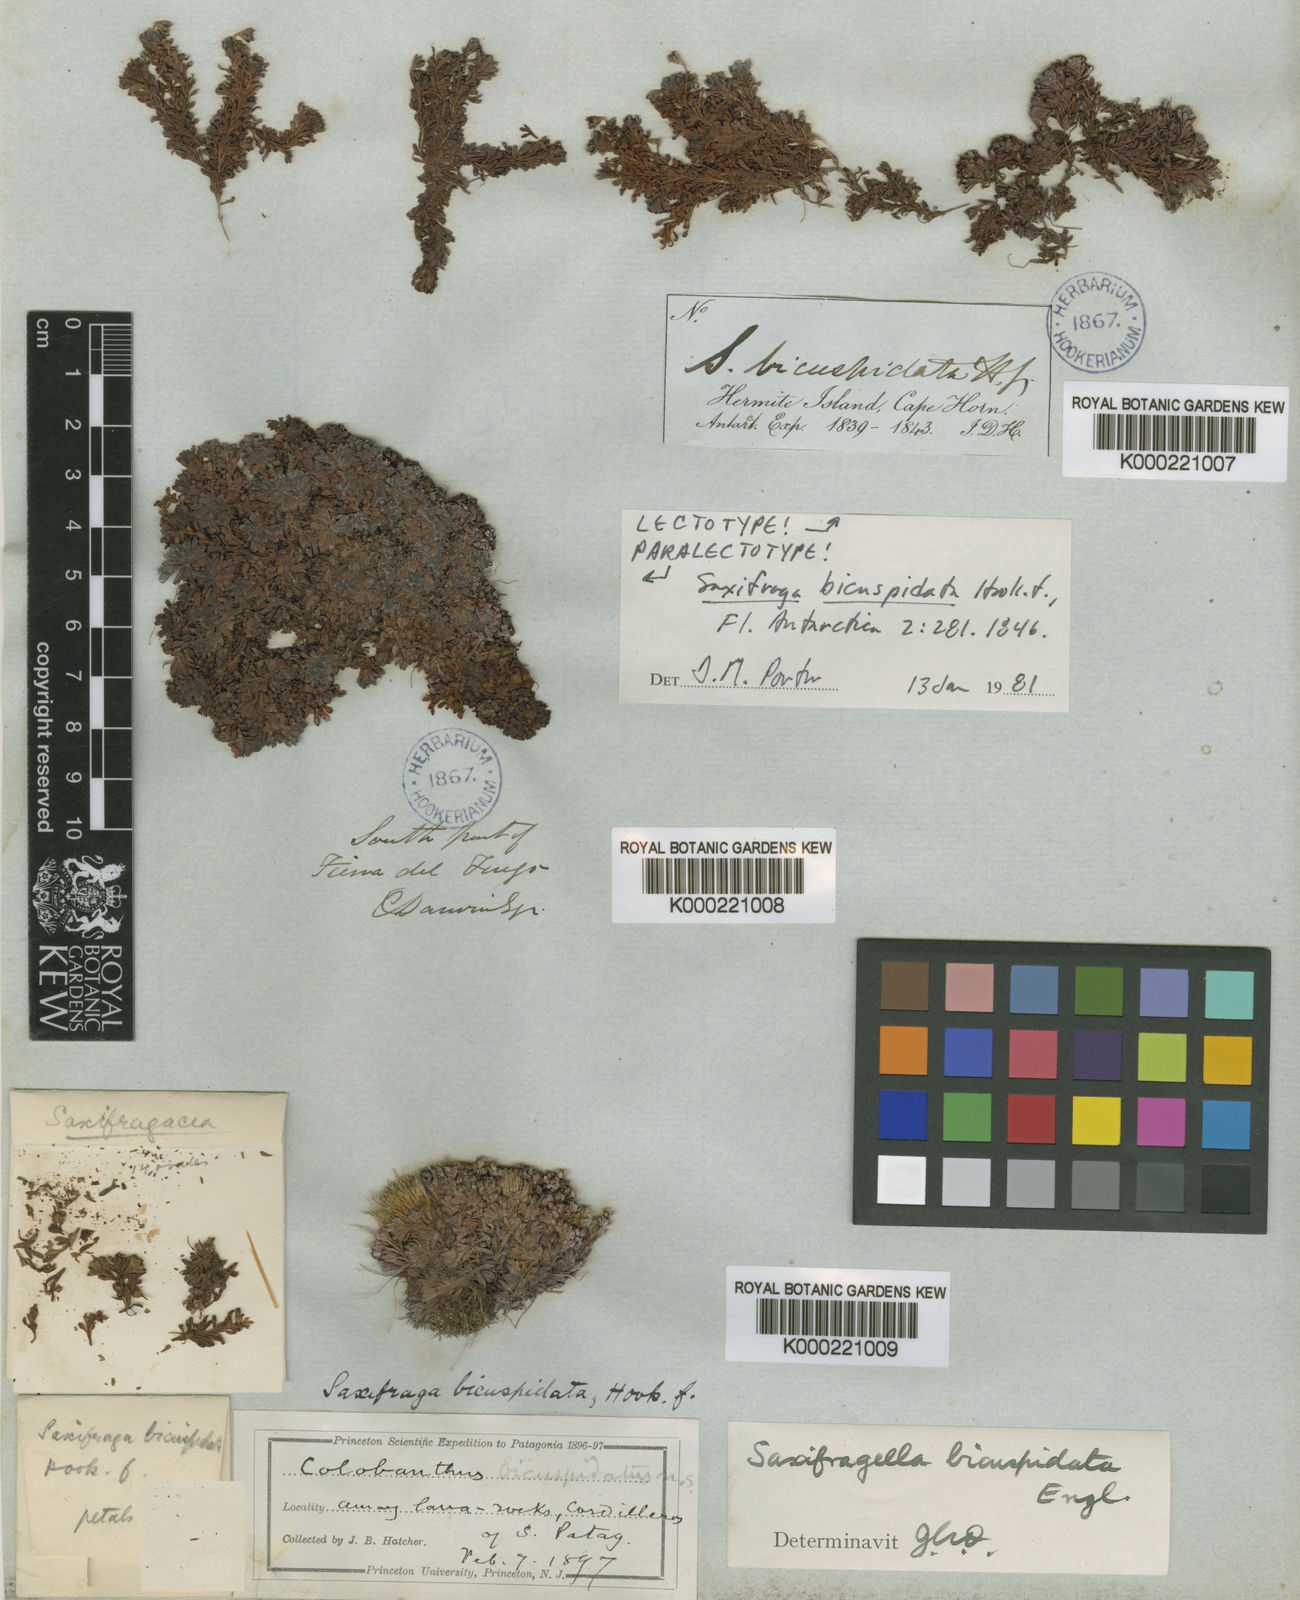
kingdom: Plantae
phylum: Tracheophyta
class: Magnoliopsida
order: Saxifragales
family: Saxifragaceae
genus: Saxifraga
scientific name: Saxifraga bicuspidata
